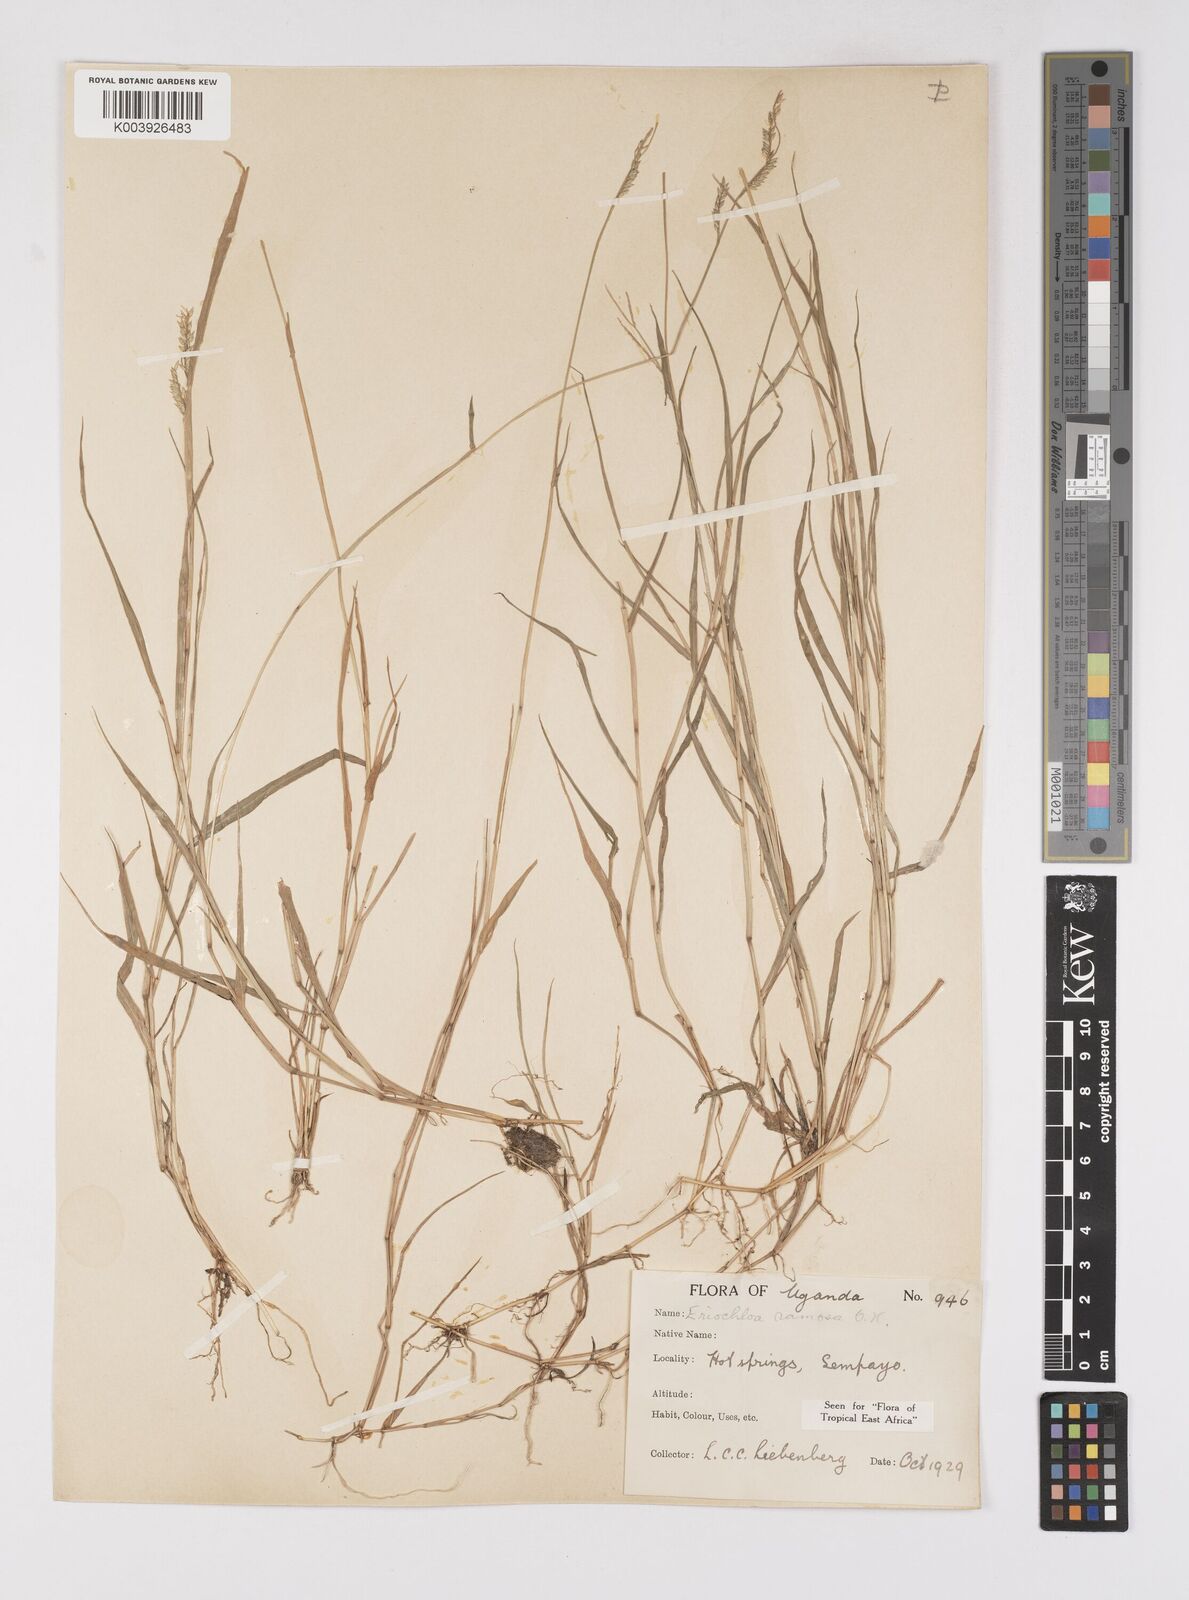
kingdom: Plantae
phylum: Tracheophyta
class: Liliopsida
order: Poales
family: Poaceae
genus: Eriochloa
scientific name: Eriochloa procera
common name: Spring grass
